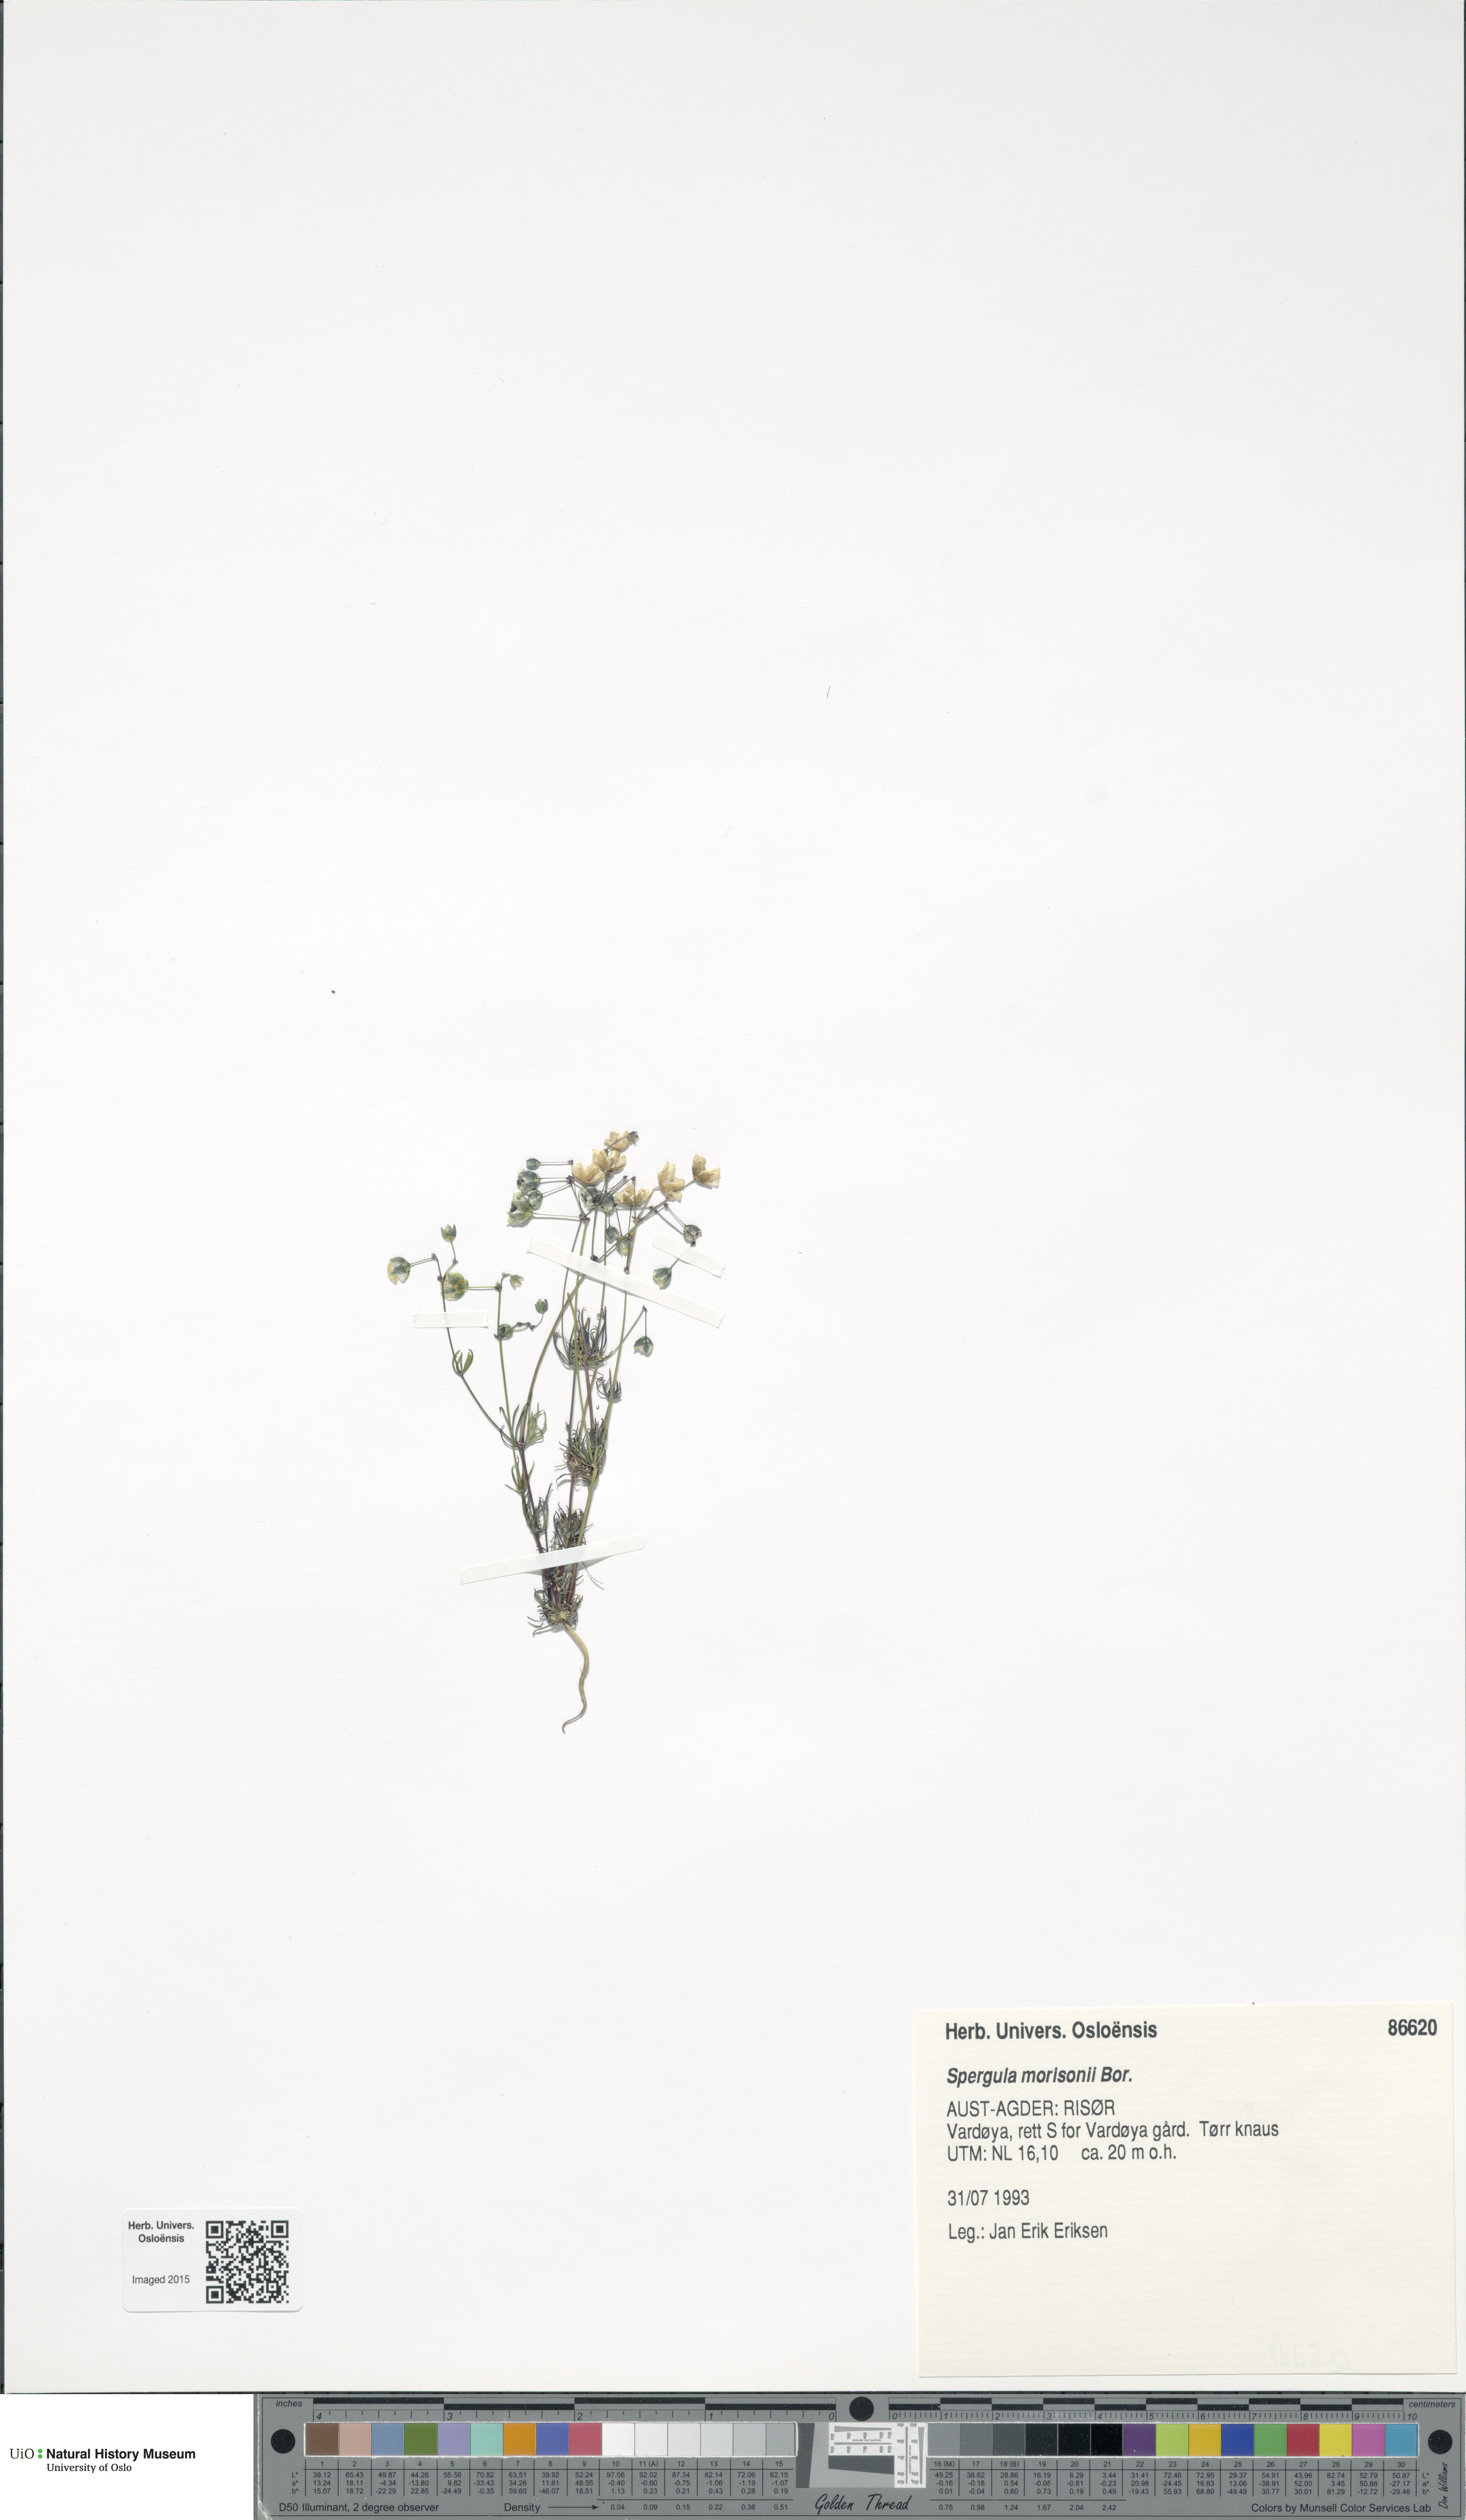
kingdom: Plantae
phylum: Tracheophyta
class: Magnoliopsida
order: Caryophyllales
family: Caryophyllaceae
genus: Spergula
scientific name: Spergula morisonii
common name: Pearlwort spurrey
